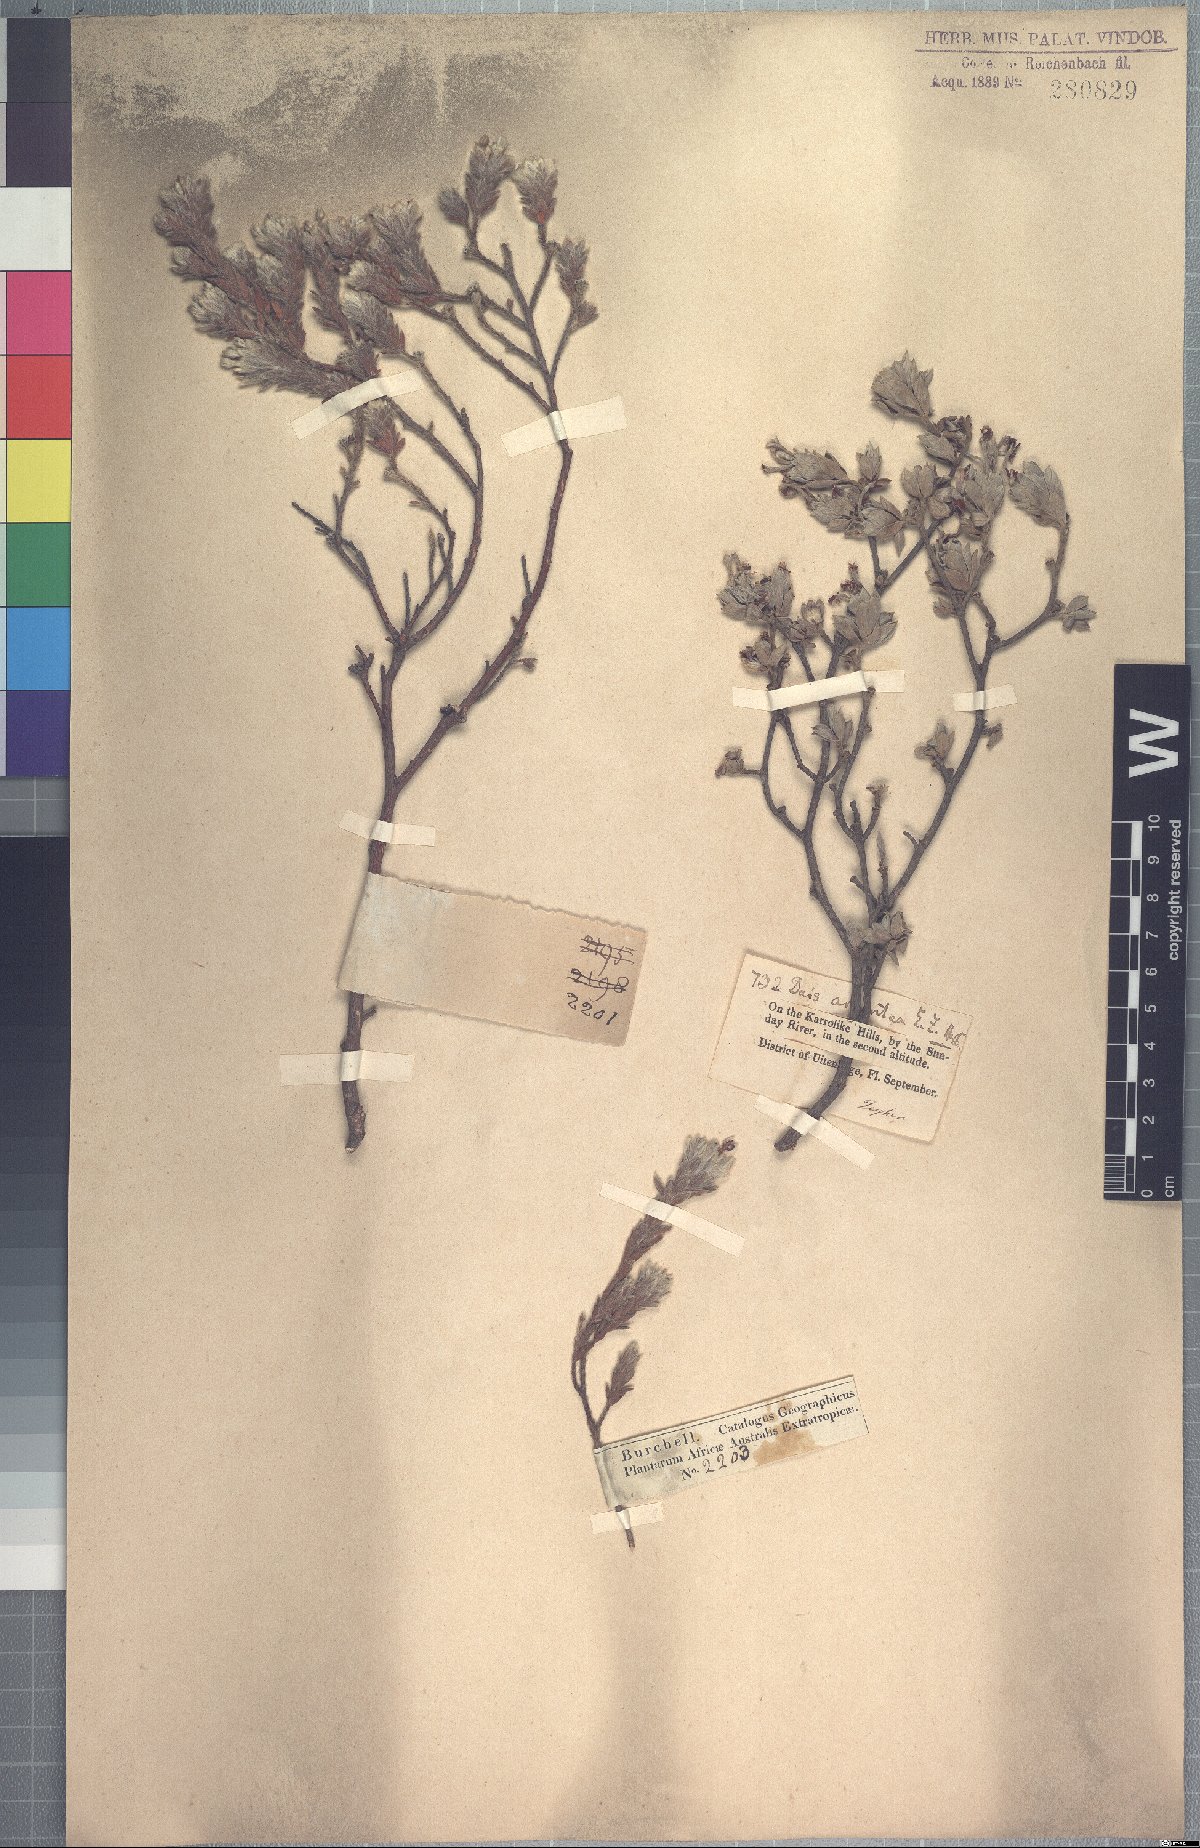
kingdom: Plantae
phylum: Tracheophyta
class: Magnoliopsida
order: Malvales
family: Thymelaeaceae
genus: Gnidia
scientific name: Gnidia burchellii
